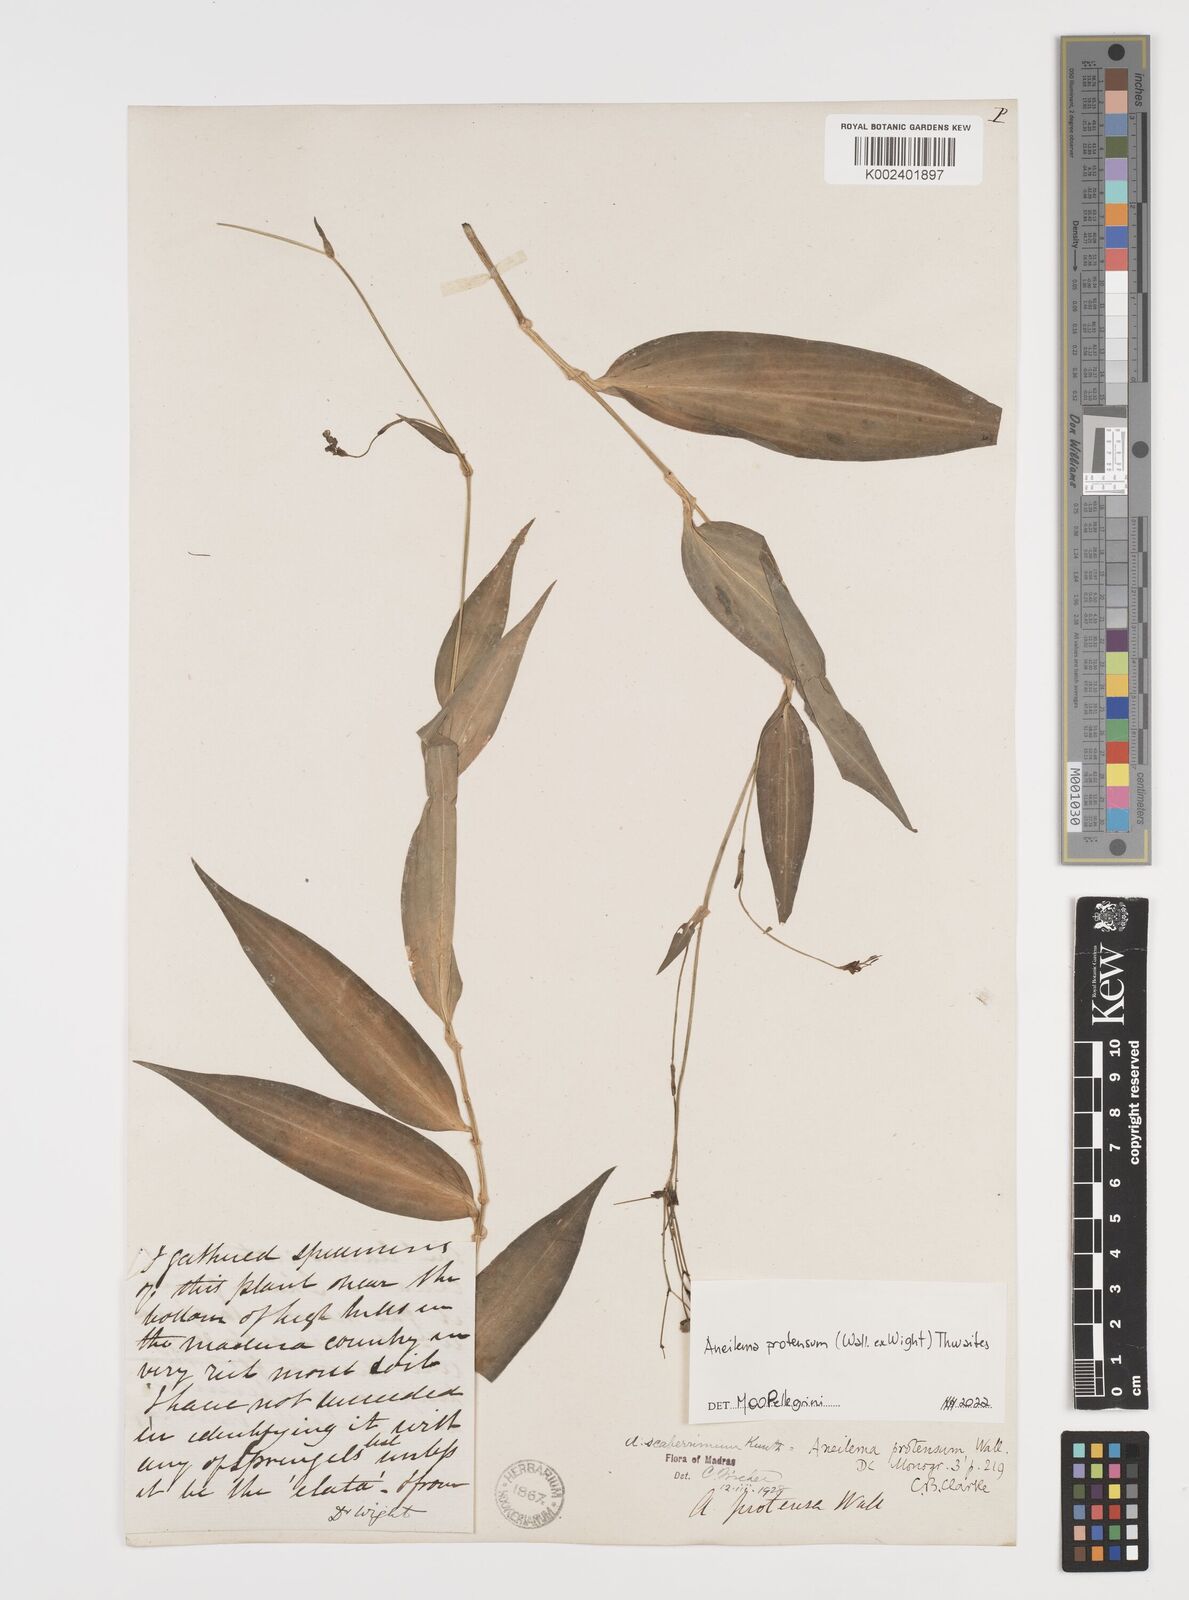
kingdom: Plantae
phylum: Tracheophyta
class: Liliopsida
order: Commelinales
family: Commelinaceae
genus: Rhopalephora
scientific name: Rhopalephora
